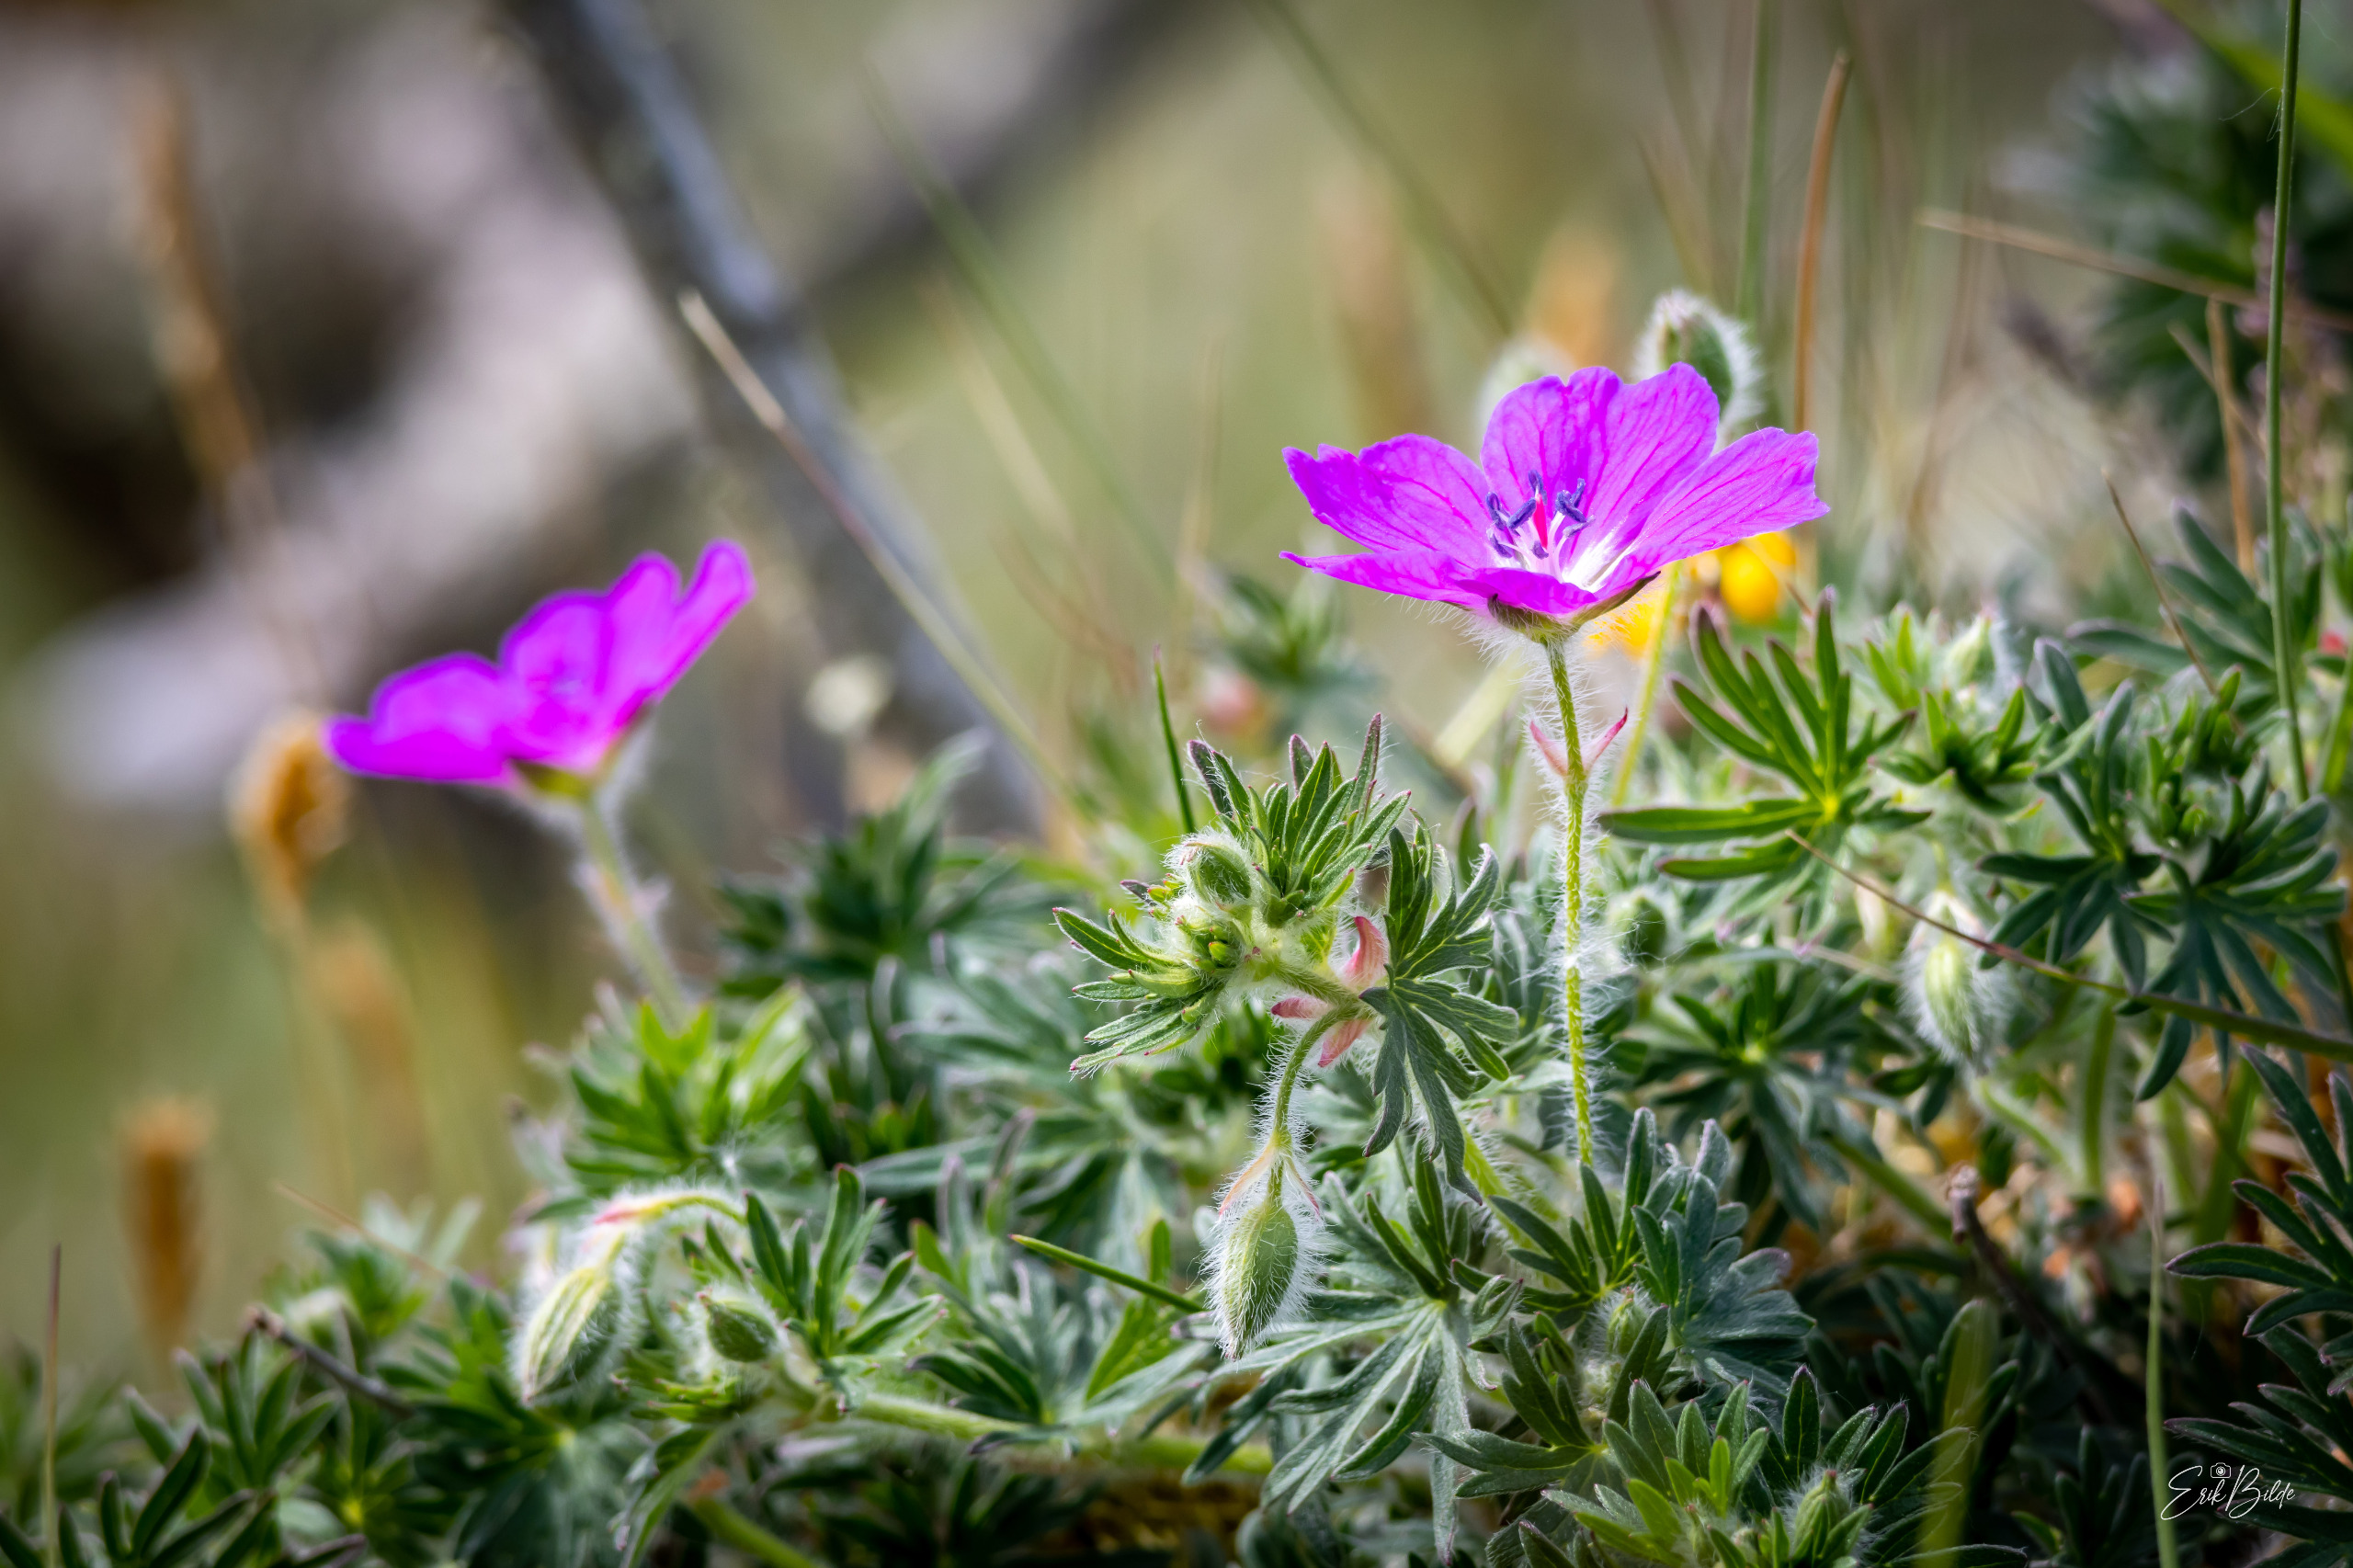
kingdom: Plantae
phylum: Tracheophyta
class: Magnoliopsida
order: Geraniales
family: Geraniaceae
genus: Geranium
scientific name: Geranium sanguineum
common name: Blodrød storkenæb
